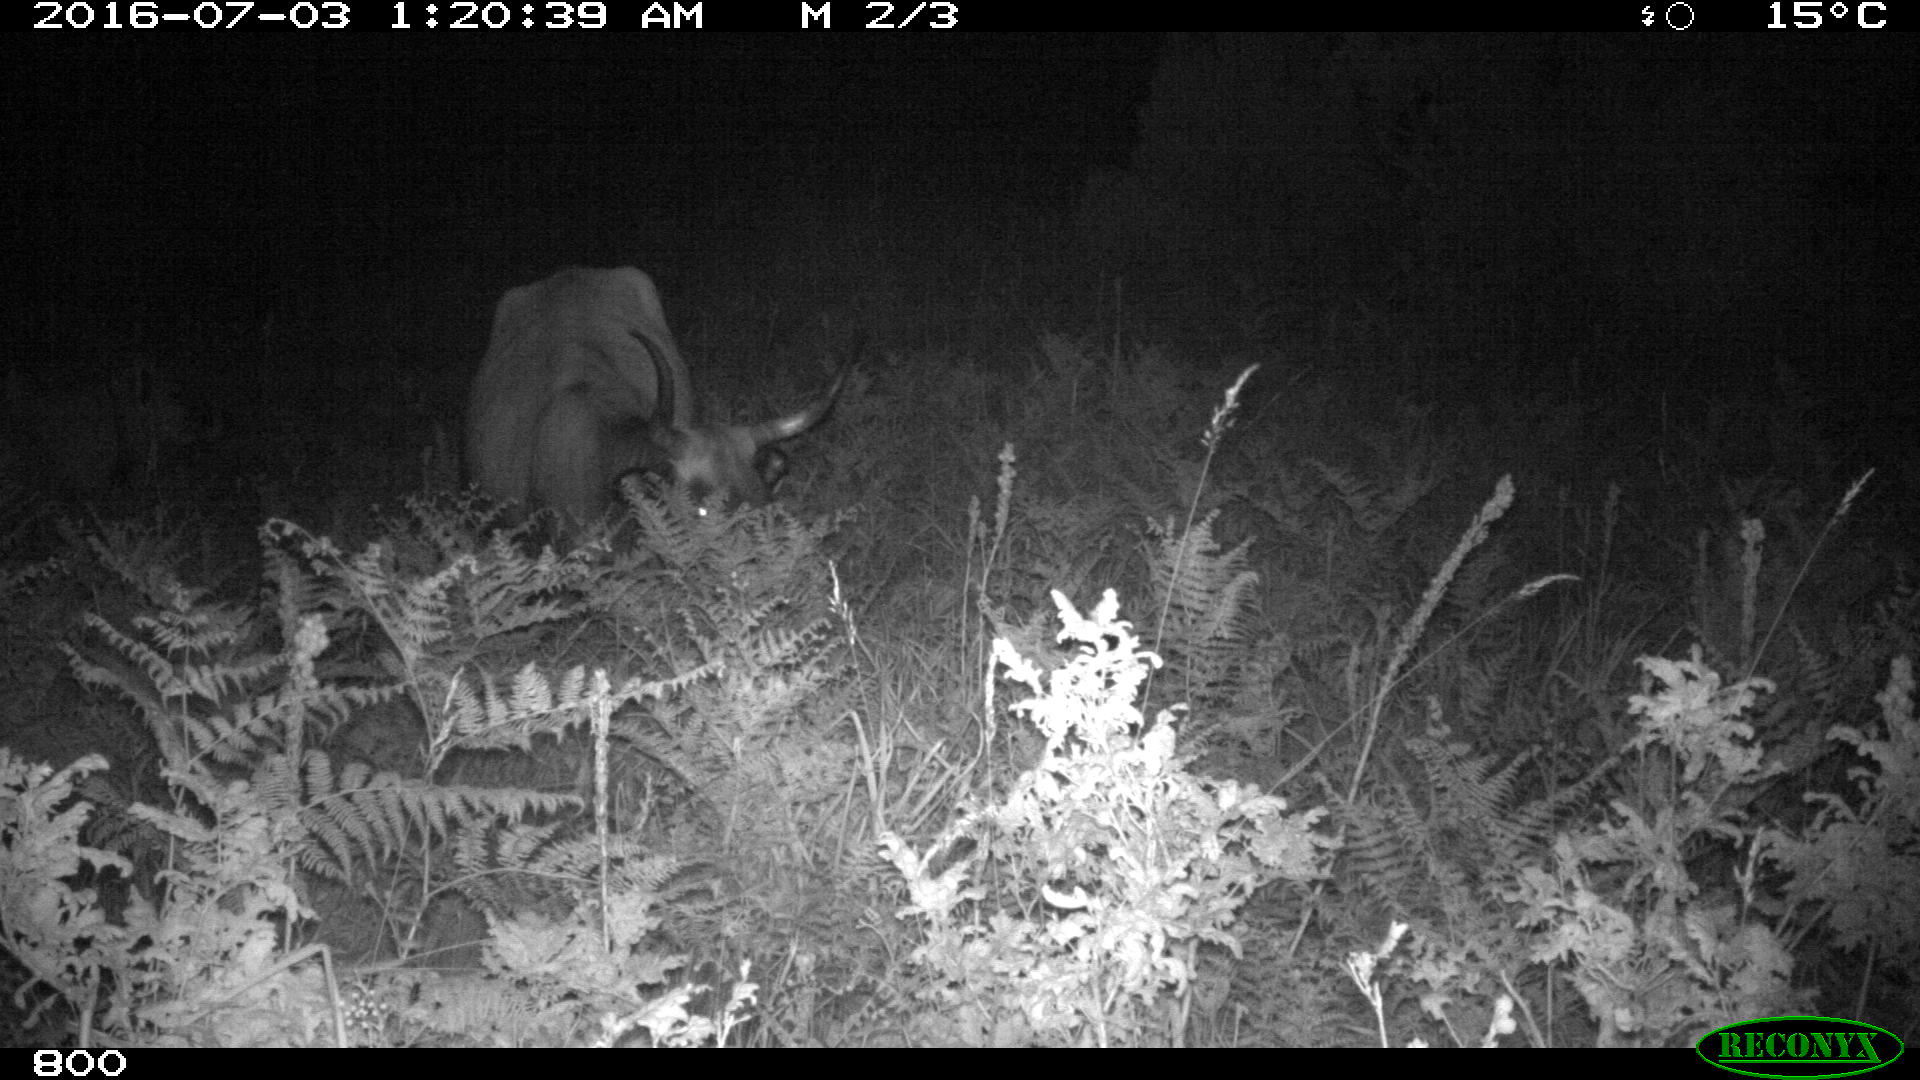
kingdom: Animalia
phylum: Chordata
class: Mammalia
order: Artiodactyla
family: Bovidae
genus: Bos
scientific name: Bos taurus
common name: Domesticated cattle
